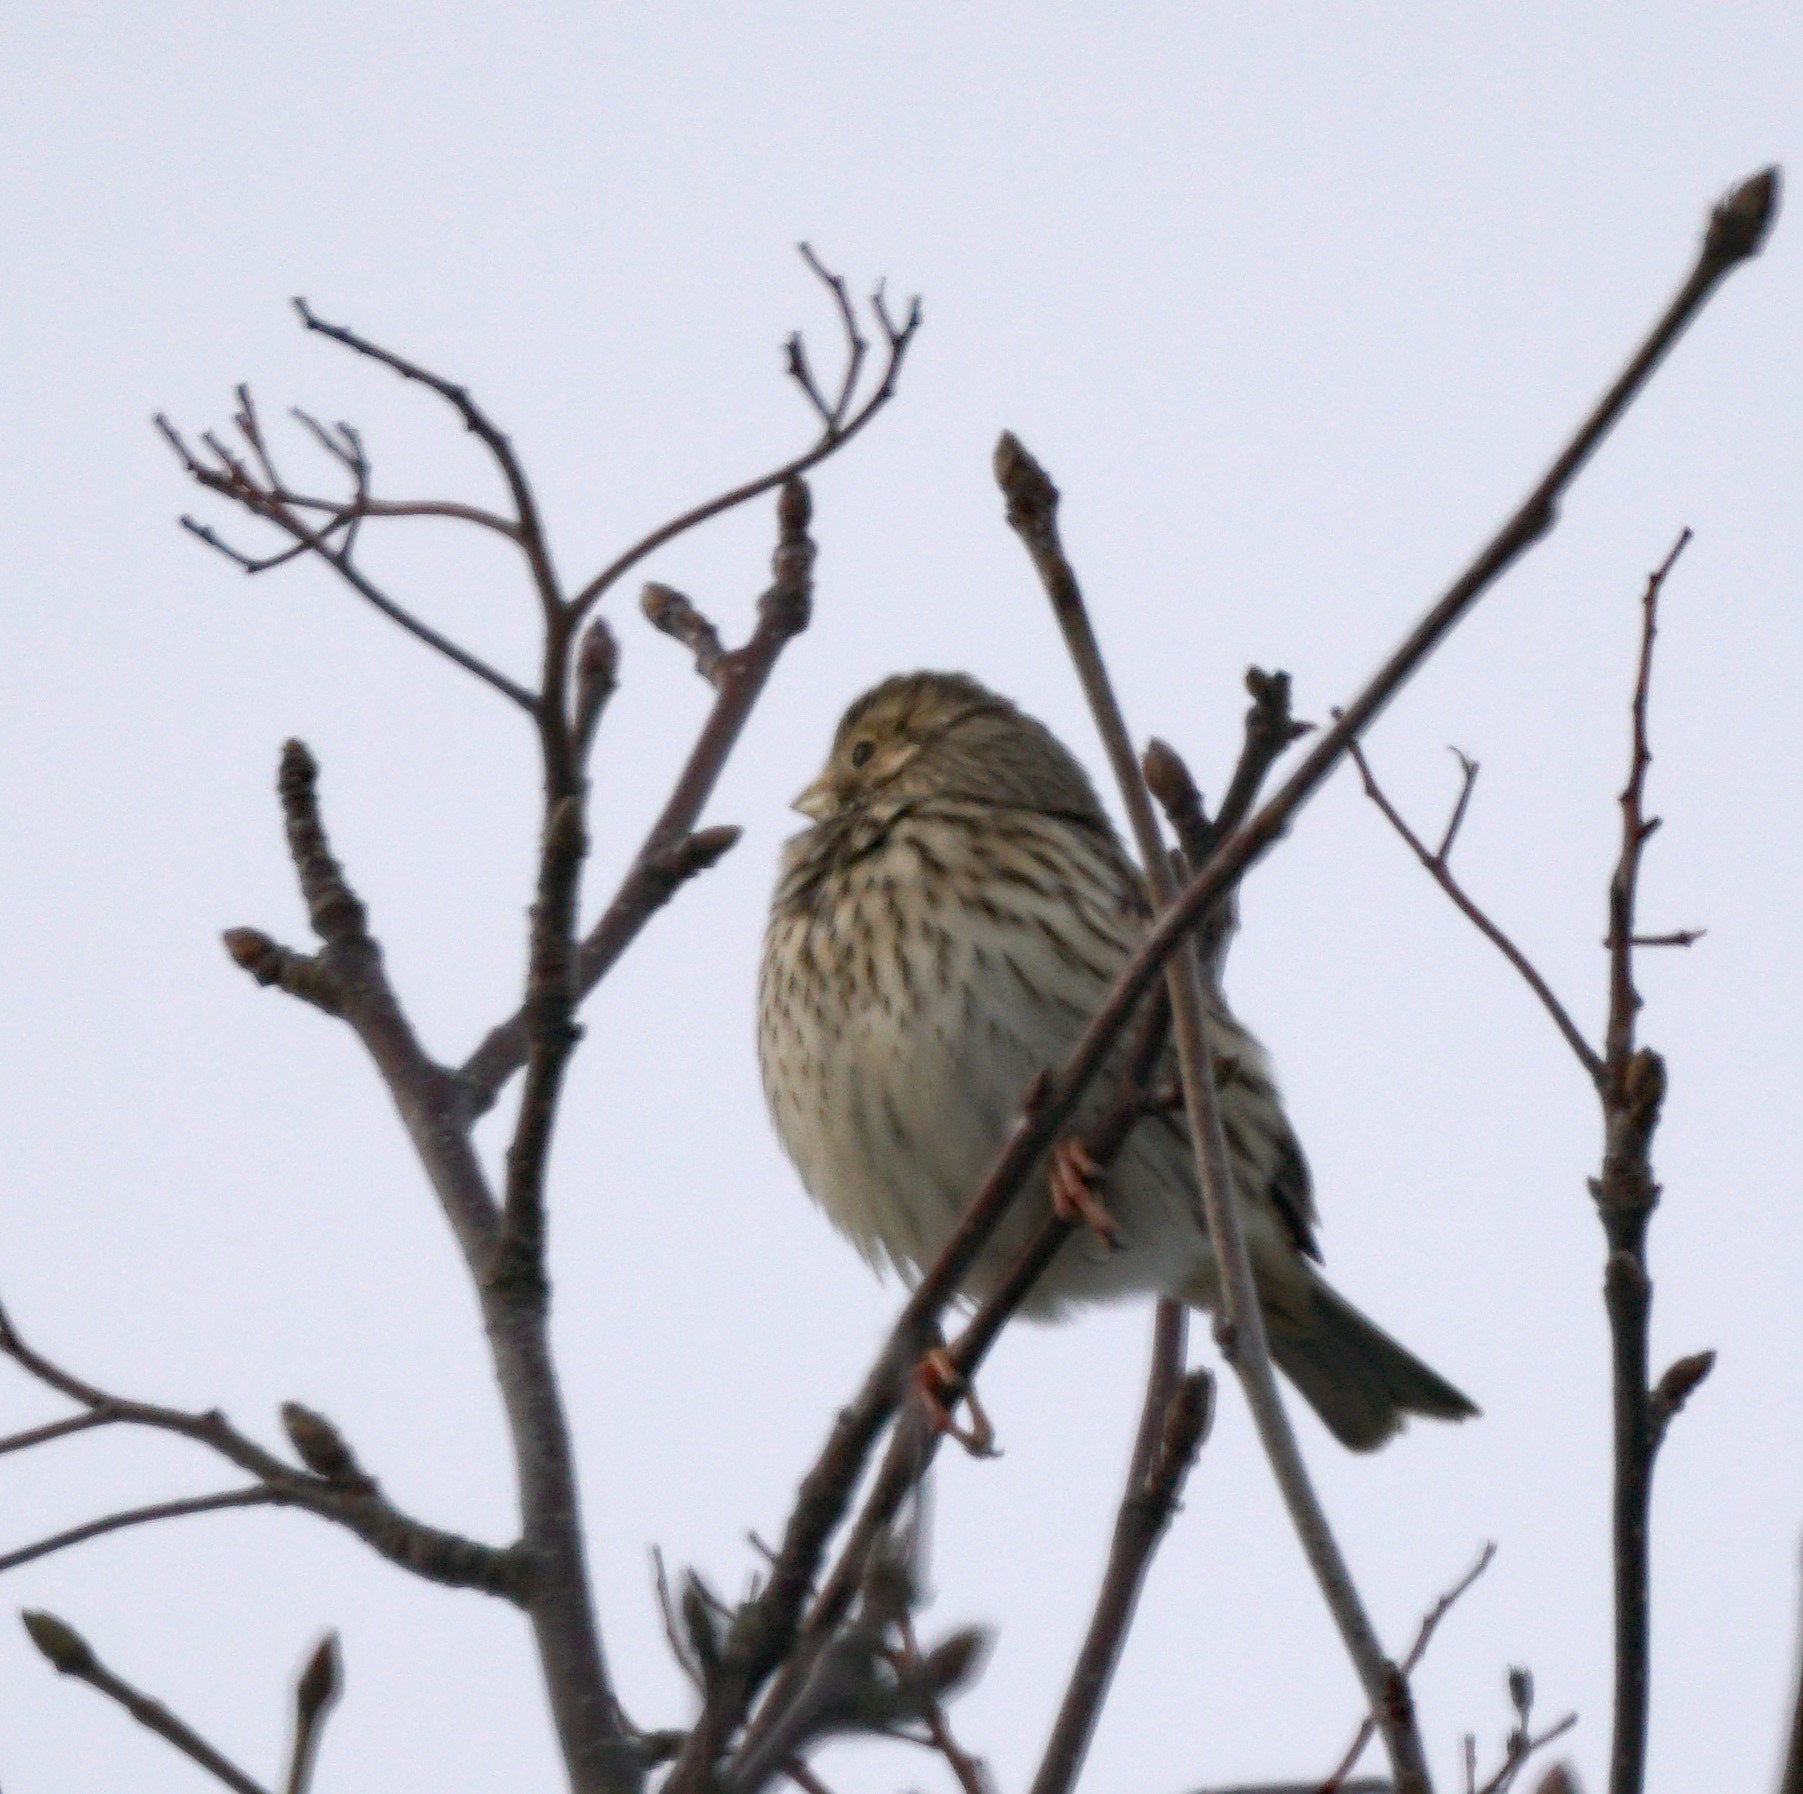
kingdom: Animalia
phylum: Chordata
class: Aves
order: Passeriformes
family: Emberizidae
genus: Emberiza
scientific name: Emberiza calandra
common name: Bomlærke
